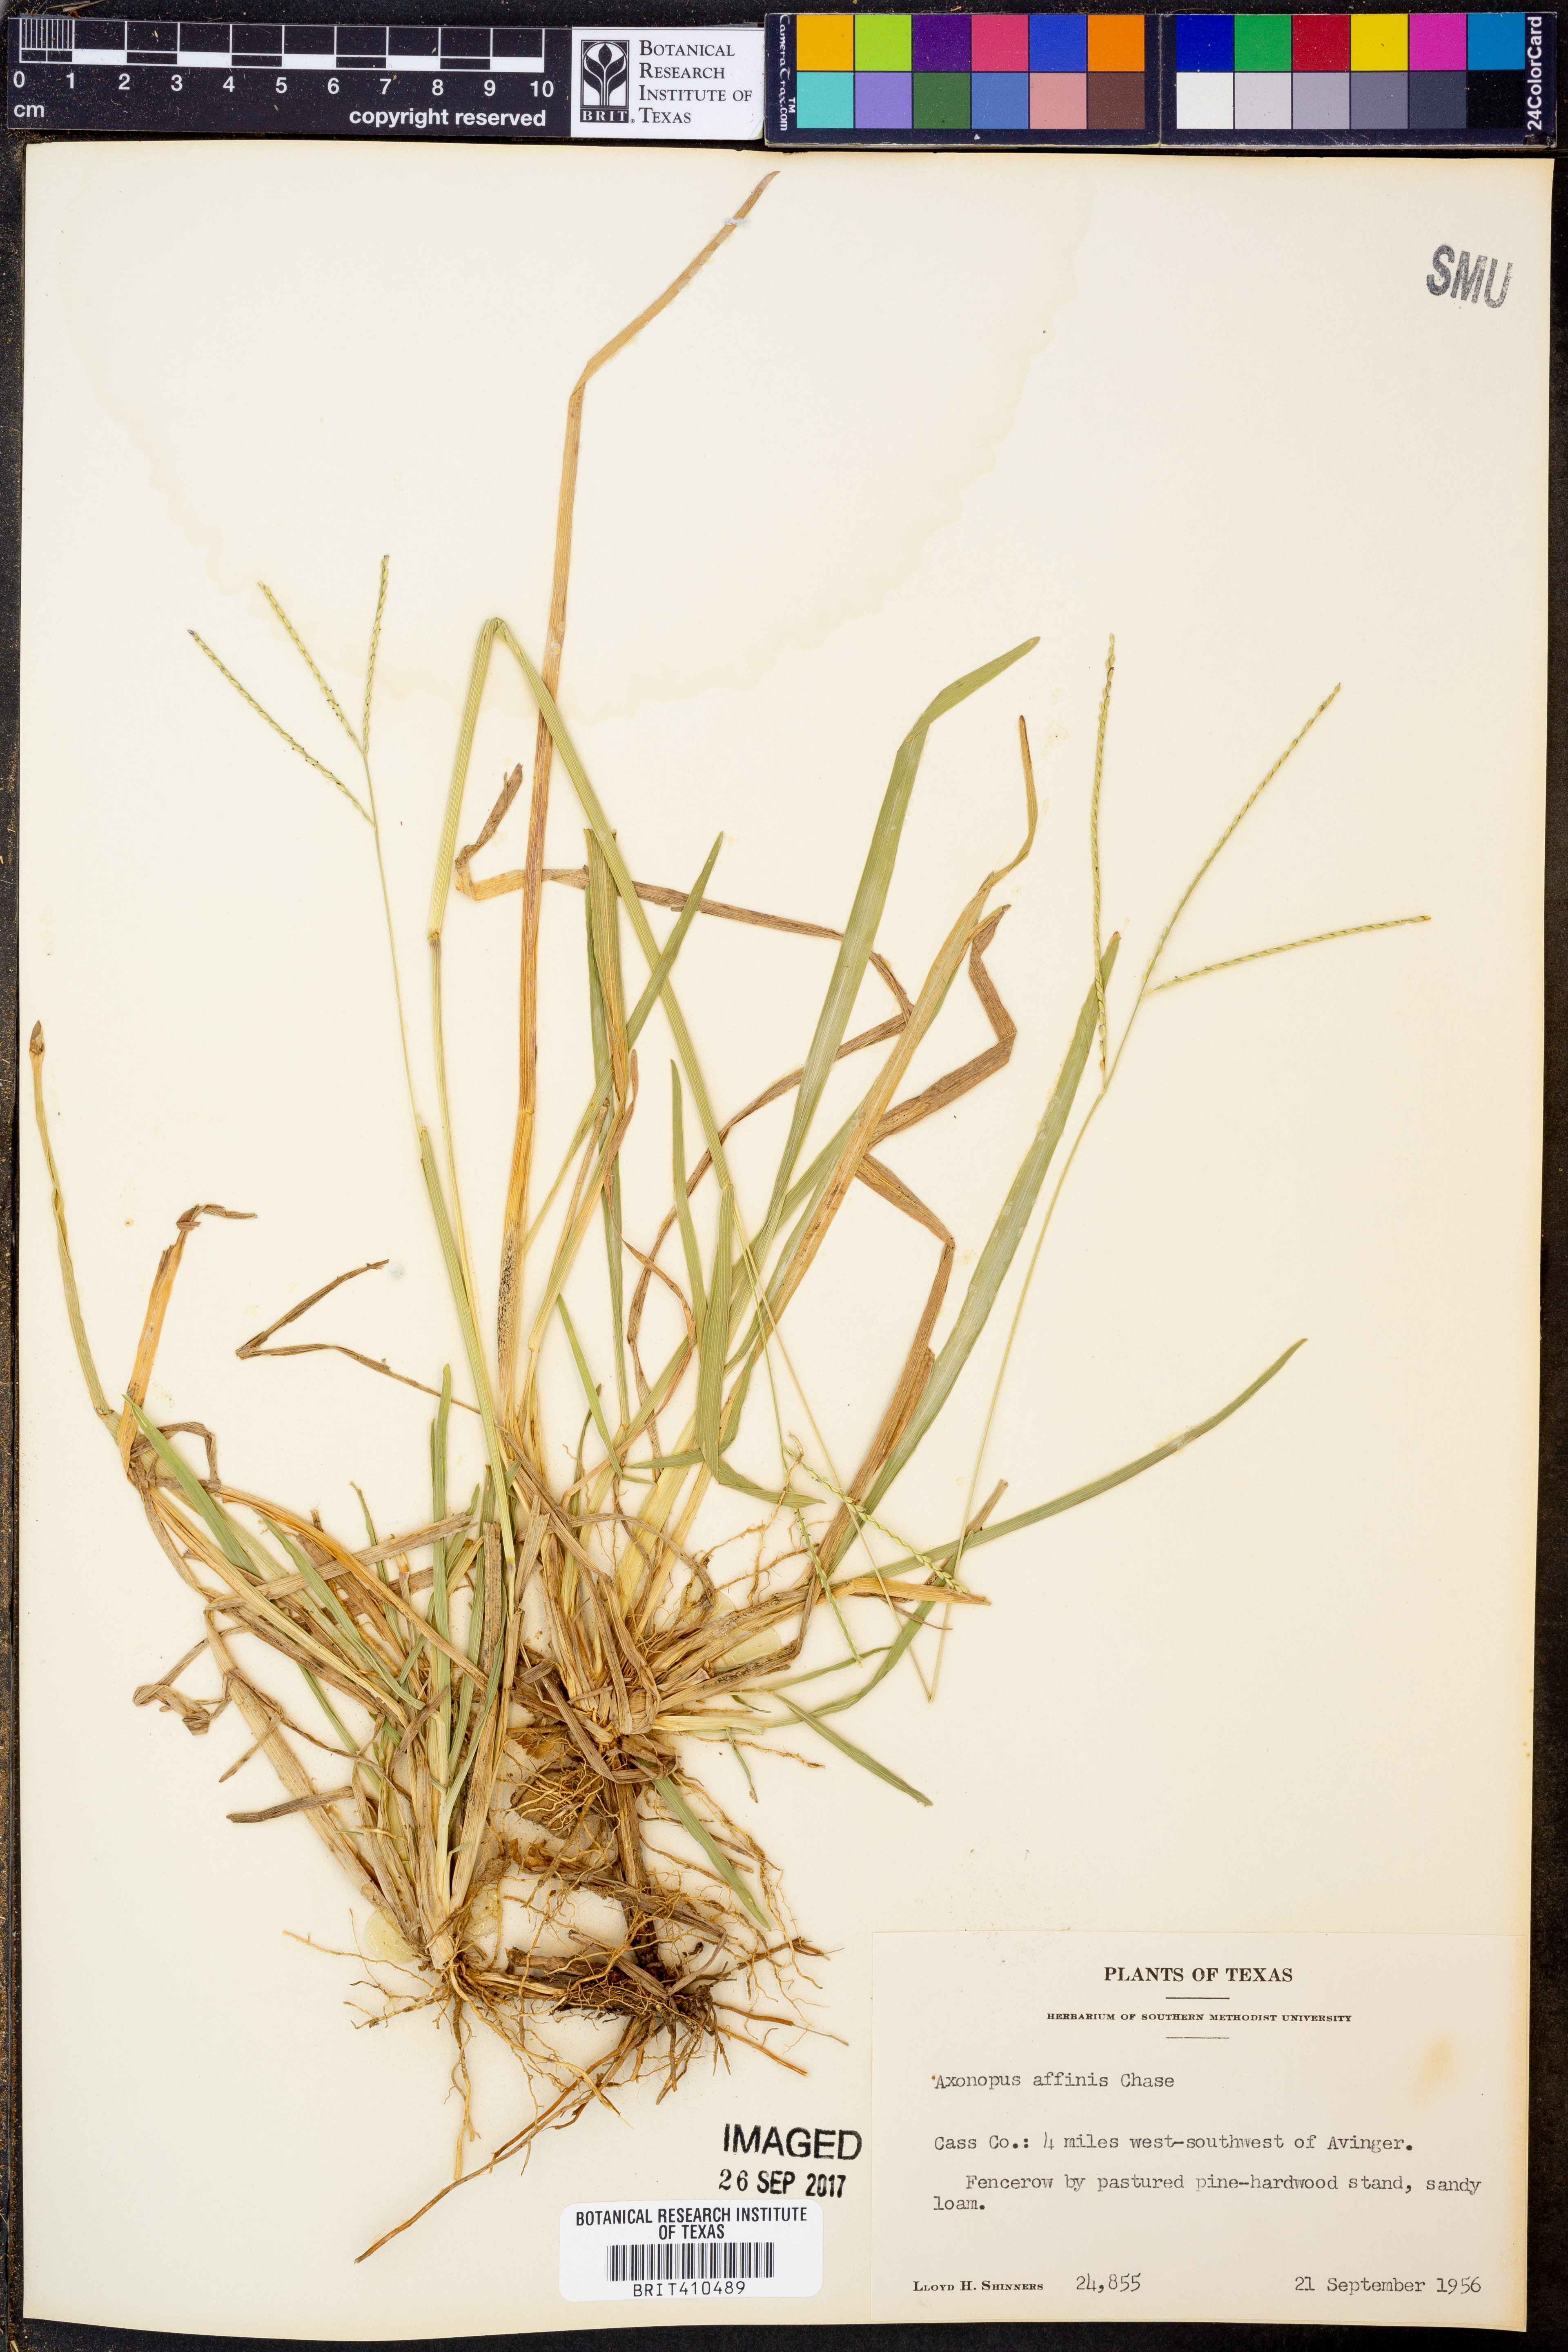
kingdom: Plantae
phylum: Tracheophyta
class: Liliopsida
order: Poales
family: Poaceae
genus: Axonopus
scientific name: Axonopus fissifolius
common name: Common carpetgrass
